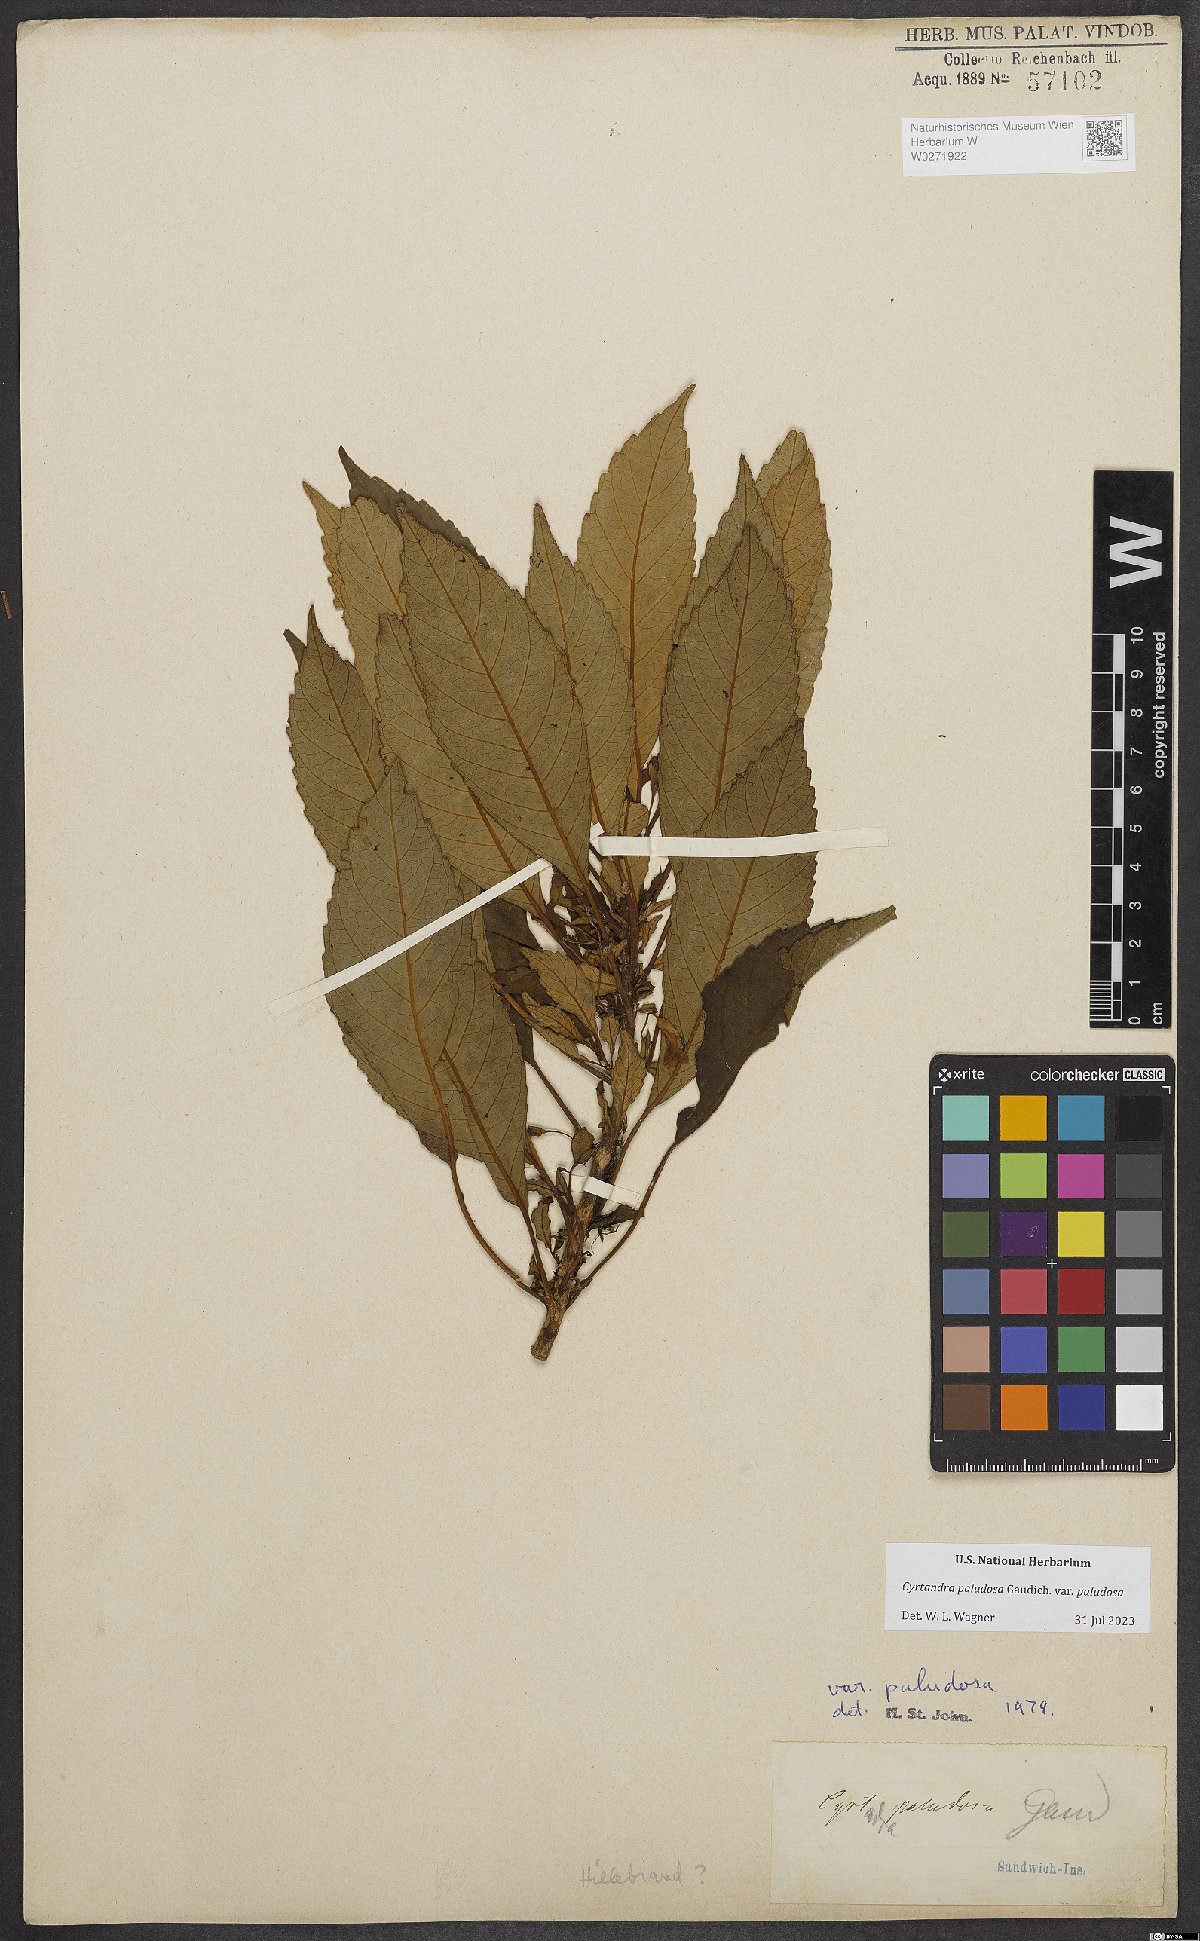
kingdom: Plantae
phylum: Tracheophyta
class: Magnoliopsida
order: Lamiales
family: Gesneriaceae
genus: Cyrtandra
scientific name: Cyrtandra paludosa
